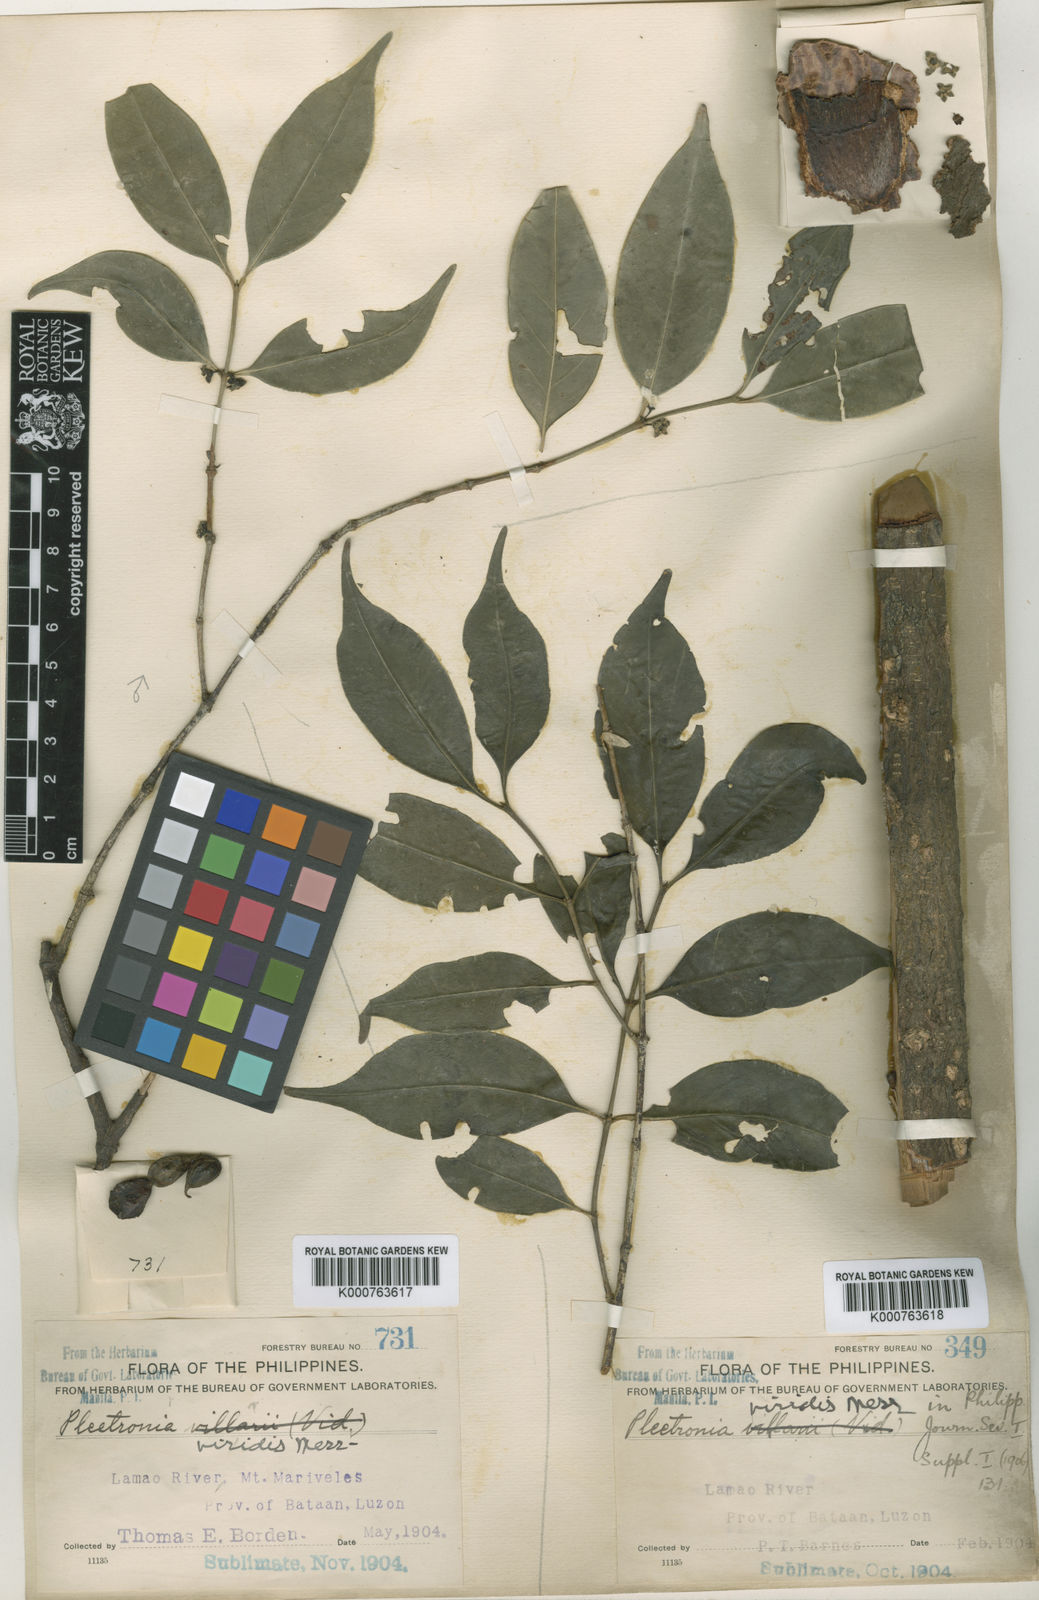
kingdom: Plantae
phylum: Tracheophyta
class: Magnoliopsida
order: Gentianales
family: Rubiaceae
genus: Benkara
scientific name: Benkara microcarpa
